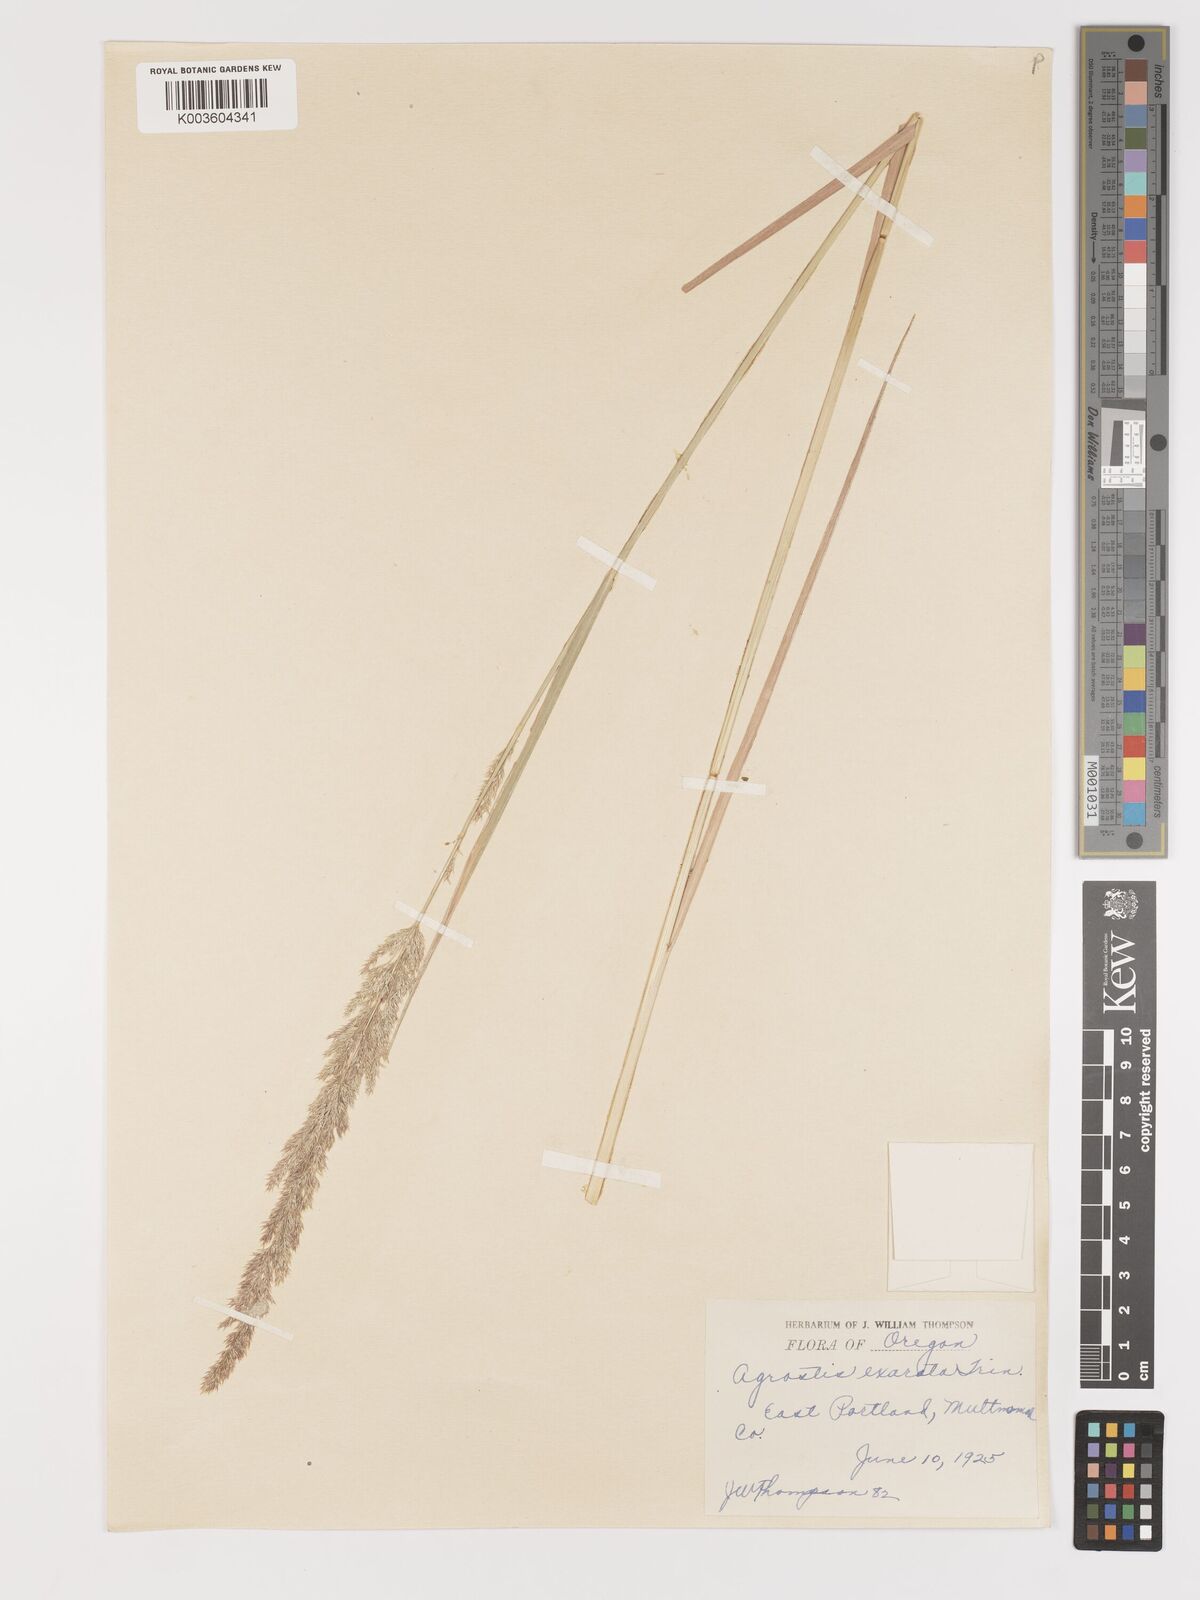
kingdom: Plantae
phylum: Tracheophyta
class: Liliopsida
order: Poales
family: Poaceae
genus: Agrostis
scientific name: Agrostis exarata
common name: Spike bent
